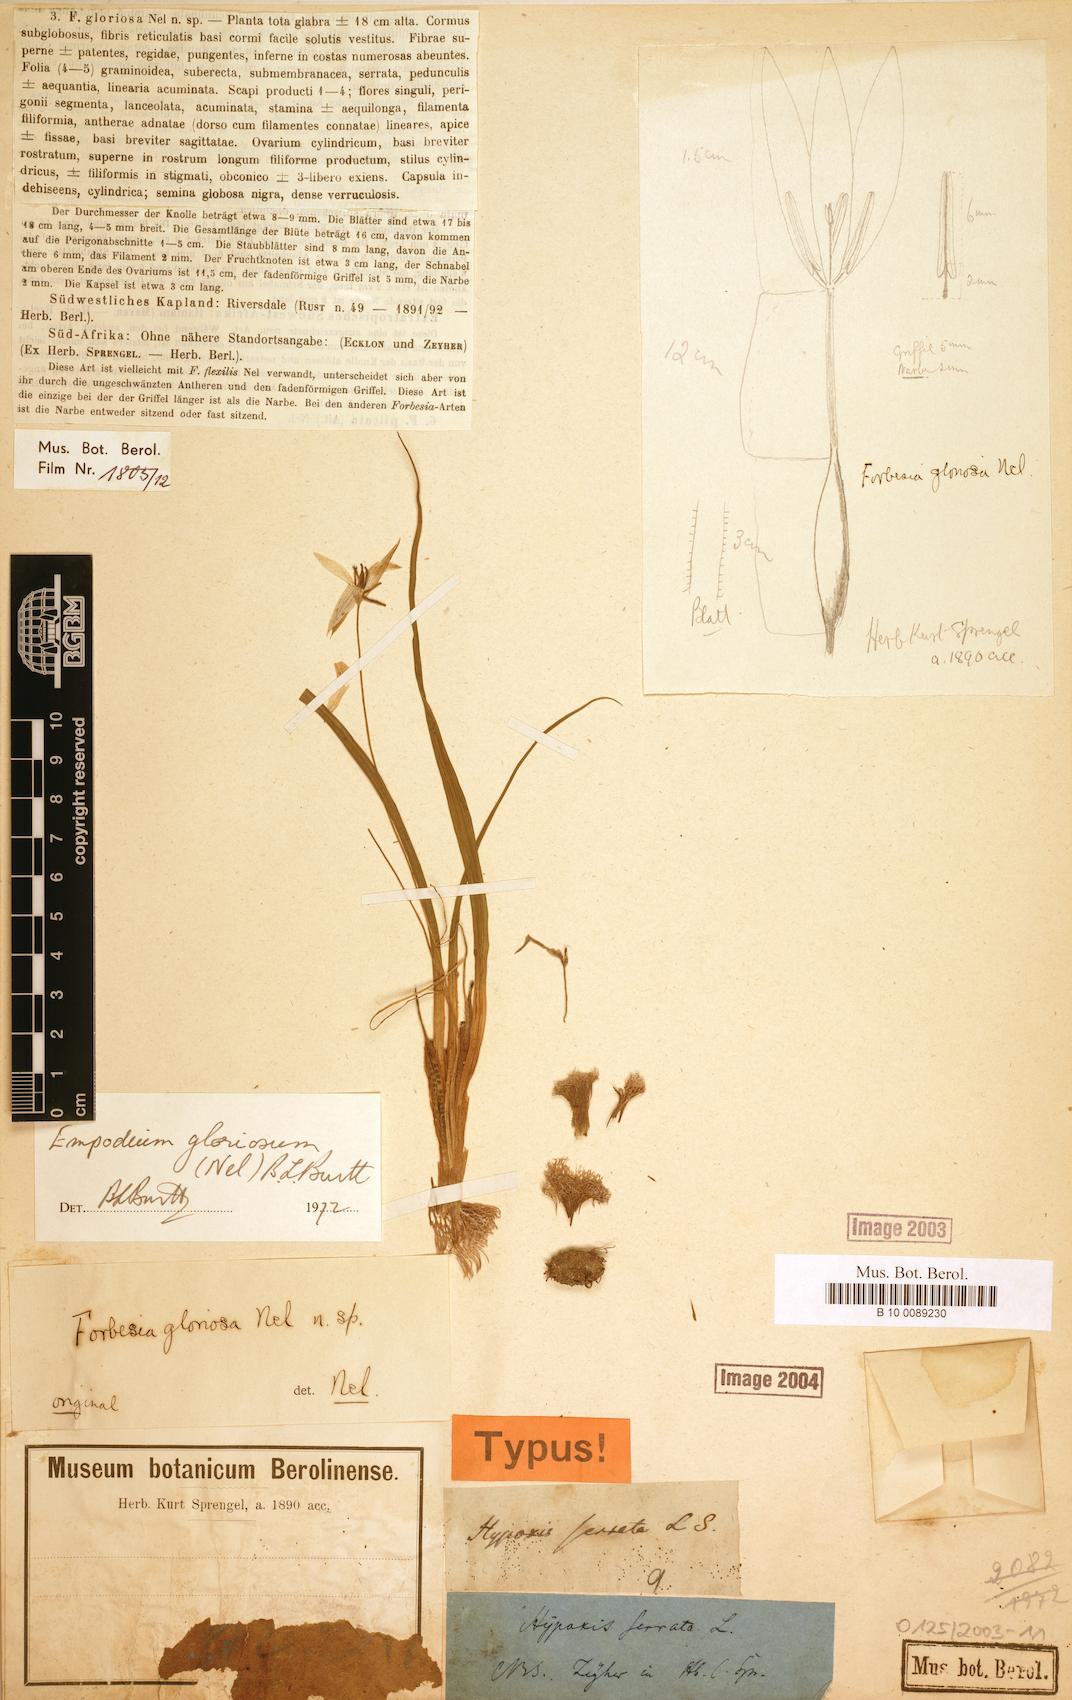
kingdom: Plantae
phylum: Tracheophyta
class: Liliopsida
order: Asparagales
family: Hypoxidaceae
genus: Empodium
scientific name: Empodium gloriosum
